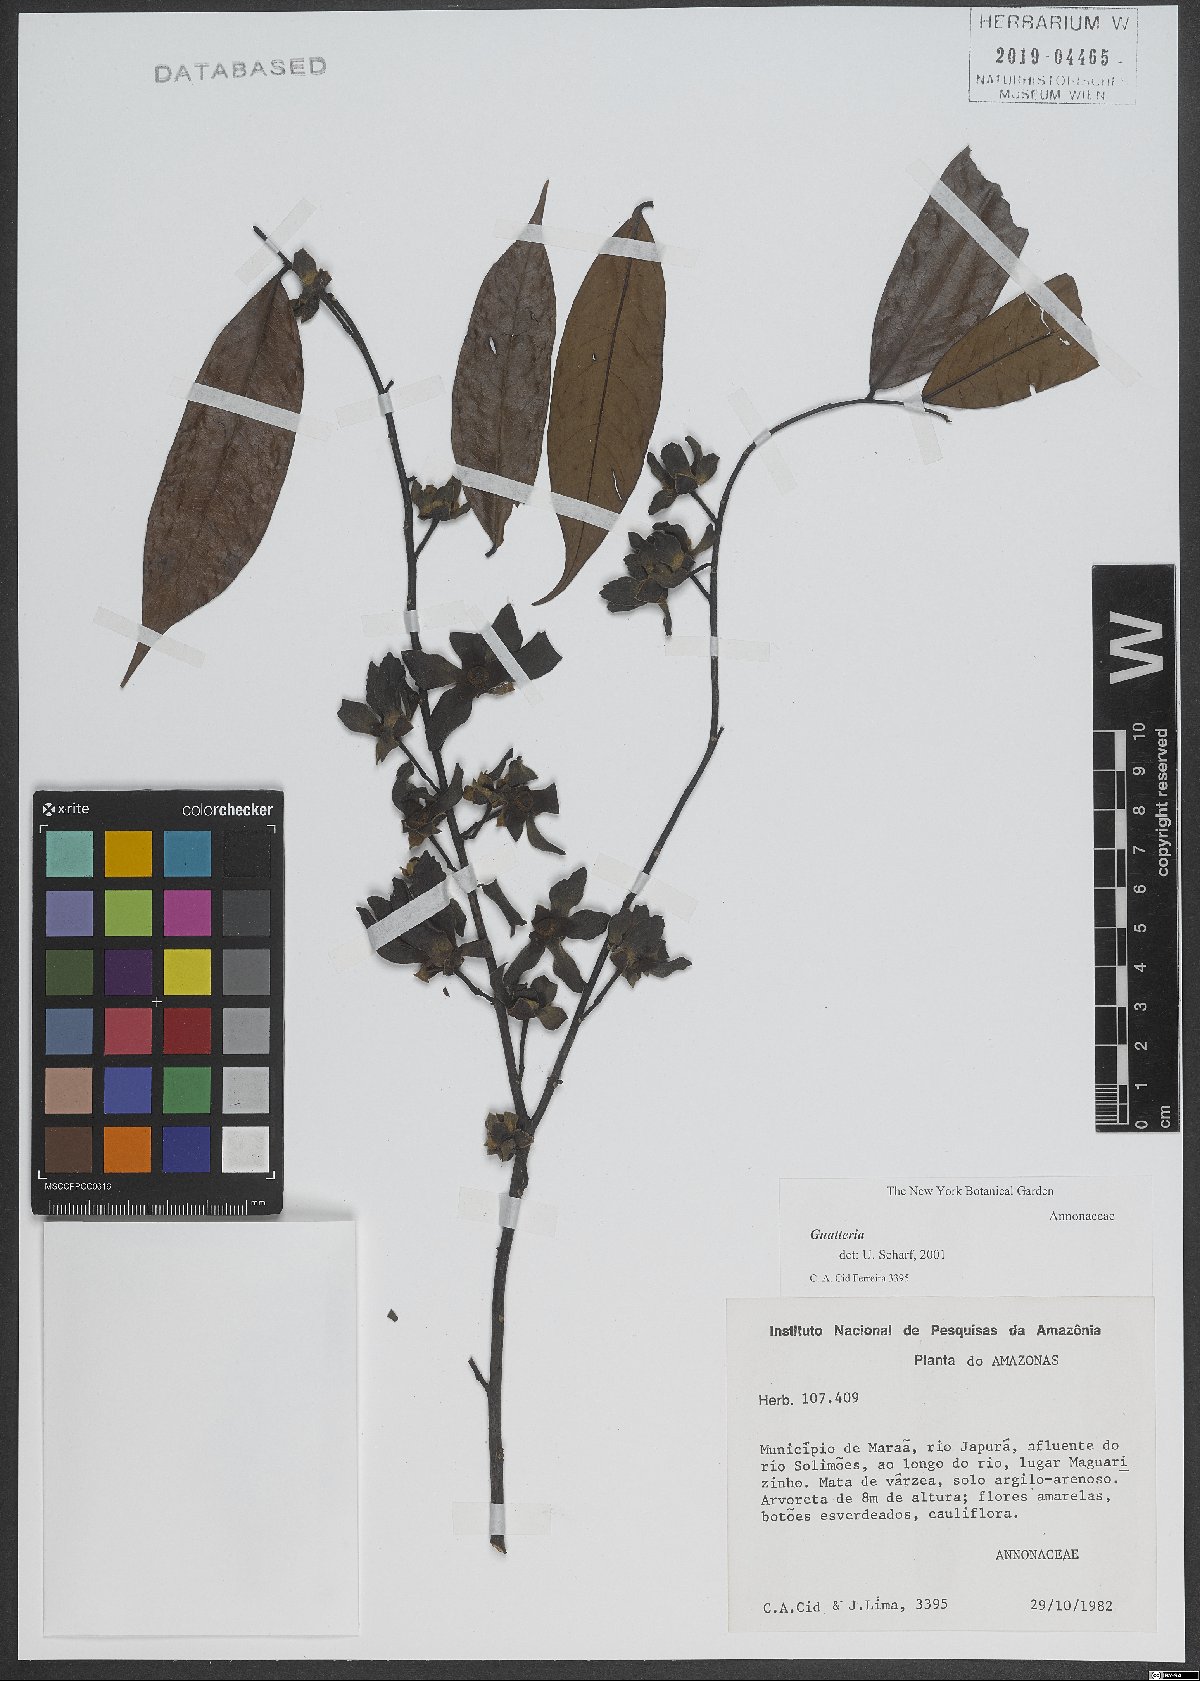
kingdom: Plantae
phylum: Tracheophyta
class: Magnoliopsida
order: Magnoliales
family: Annonaceae
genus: Guatteria
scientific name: Guatteria
